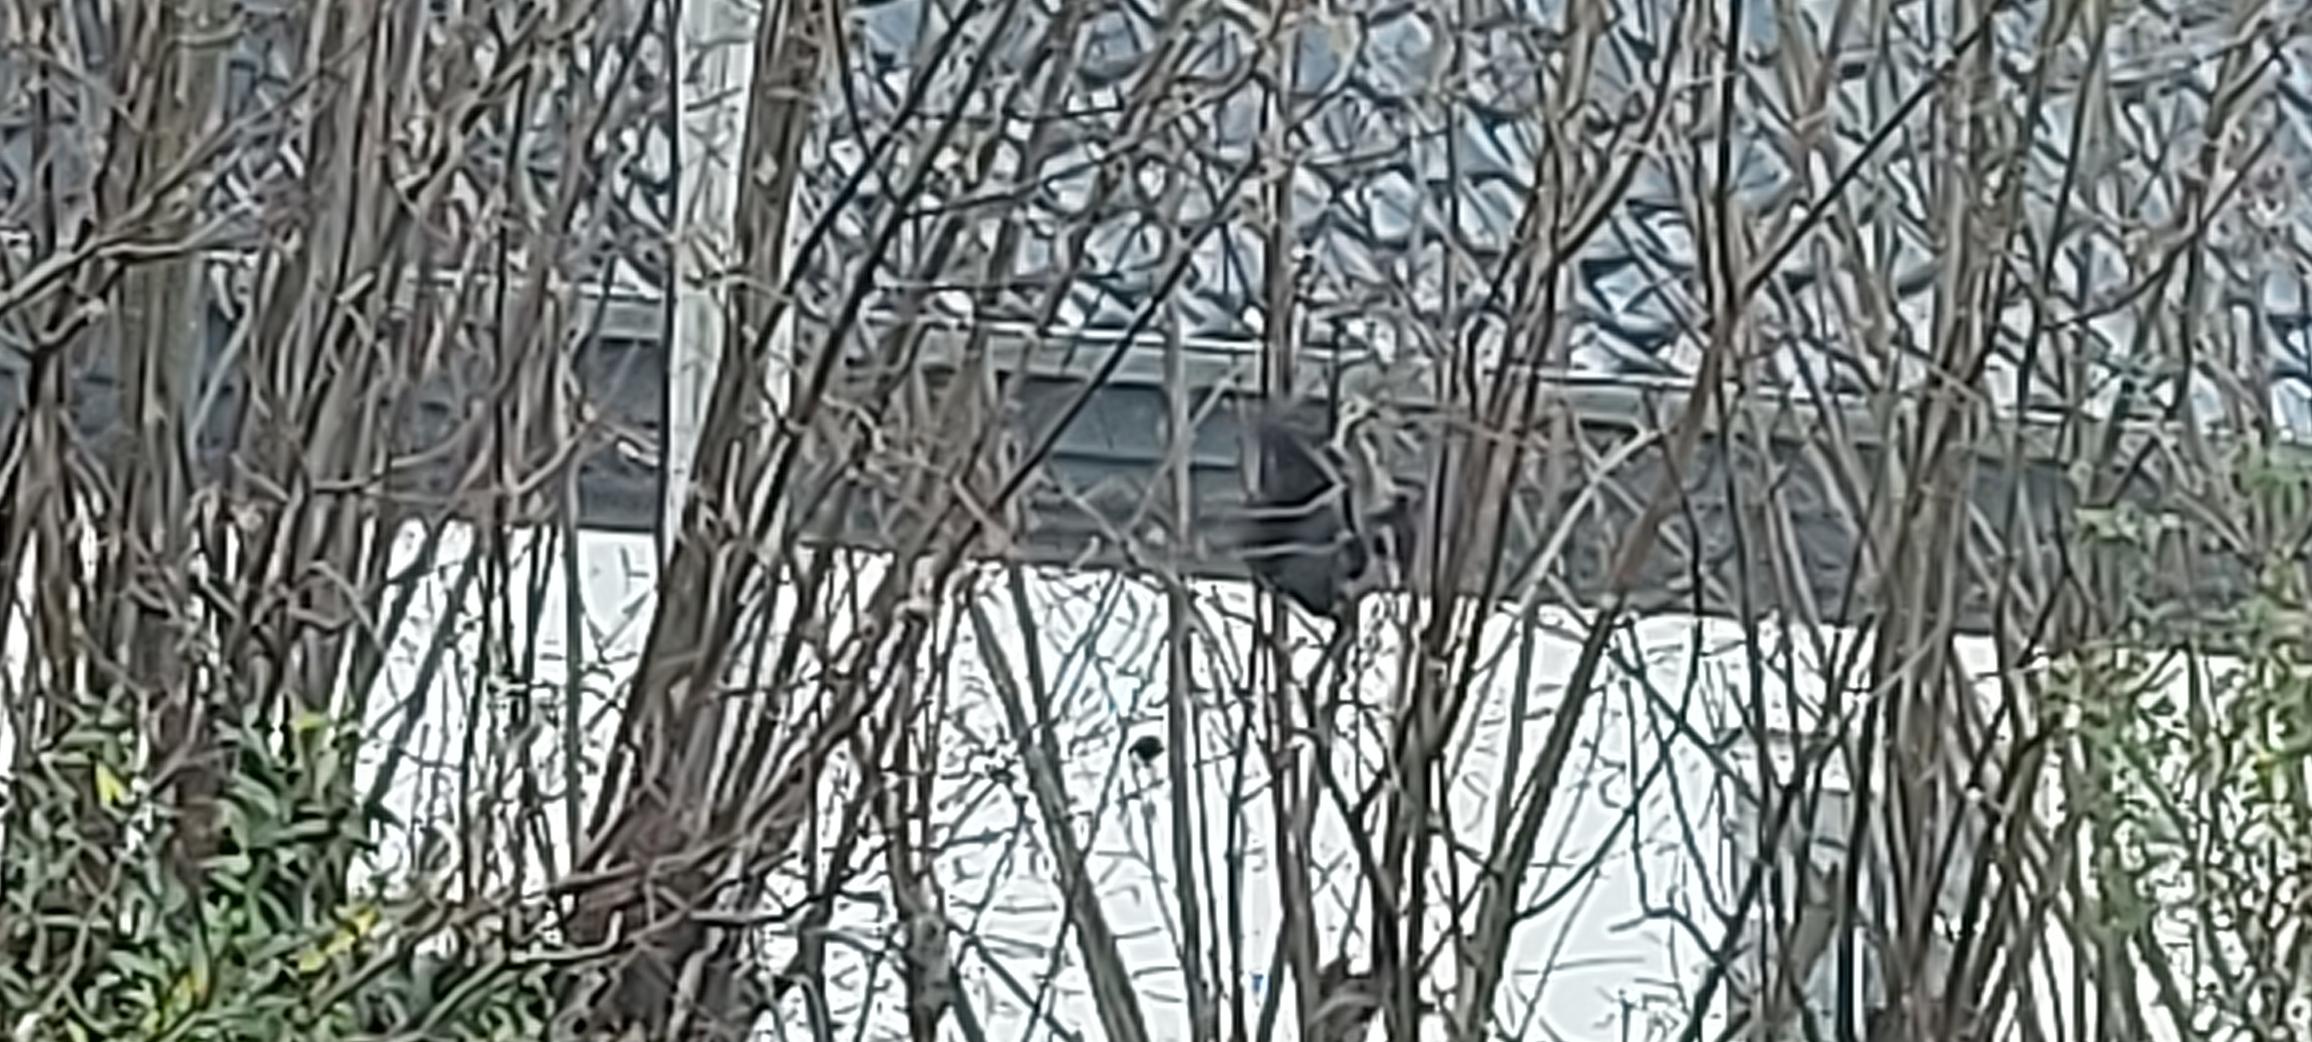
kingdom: Animalia
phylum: Chordata
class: Mammalia
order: Rodentia
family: Sciuridae
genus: Sciurus
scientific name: Sciurus vulgaris
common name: Egern
